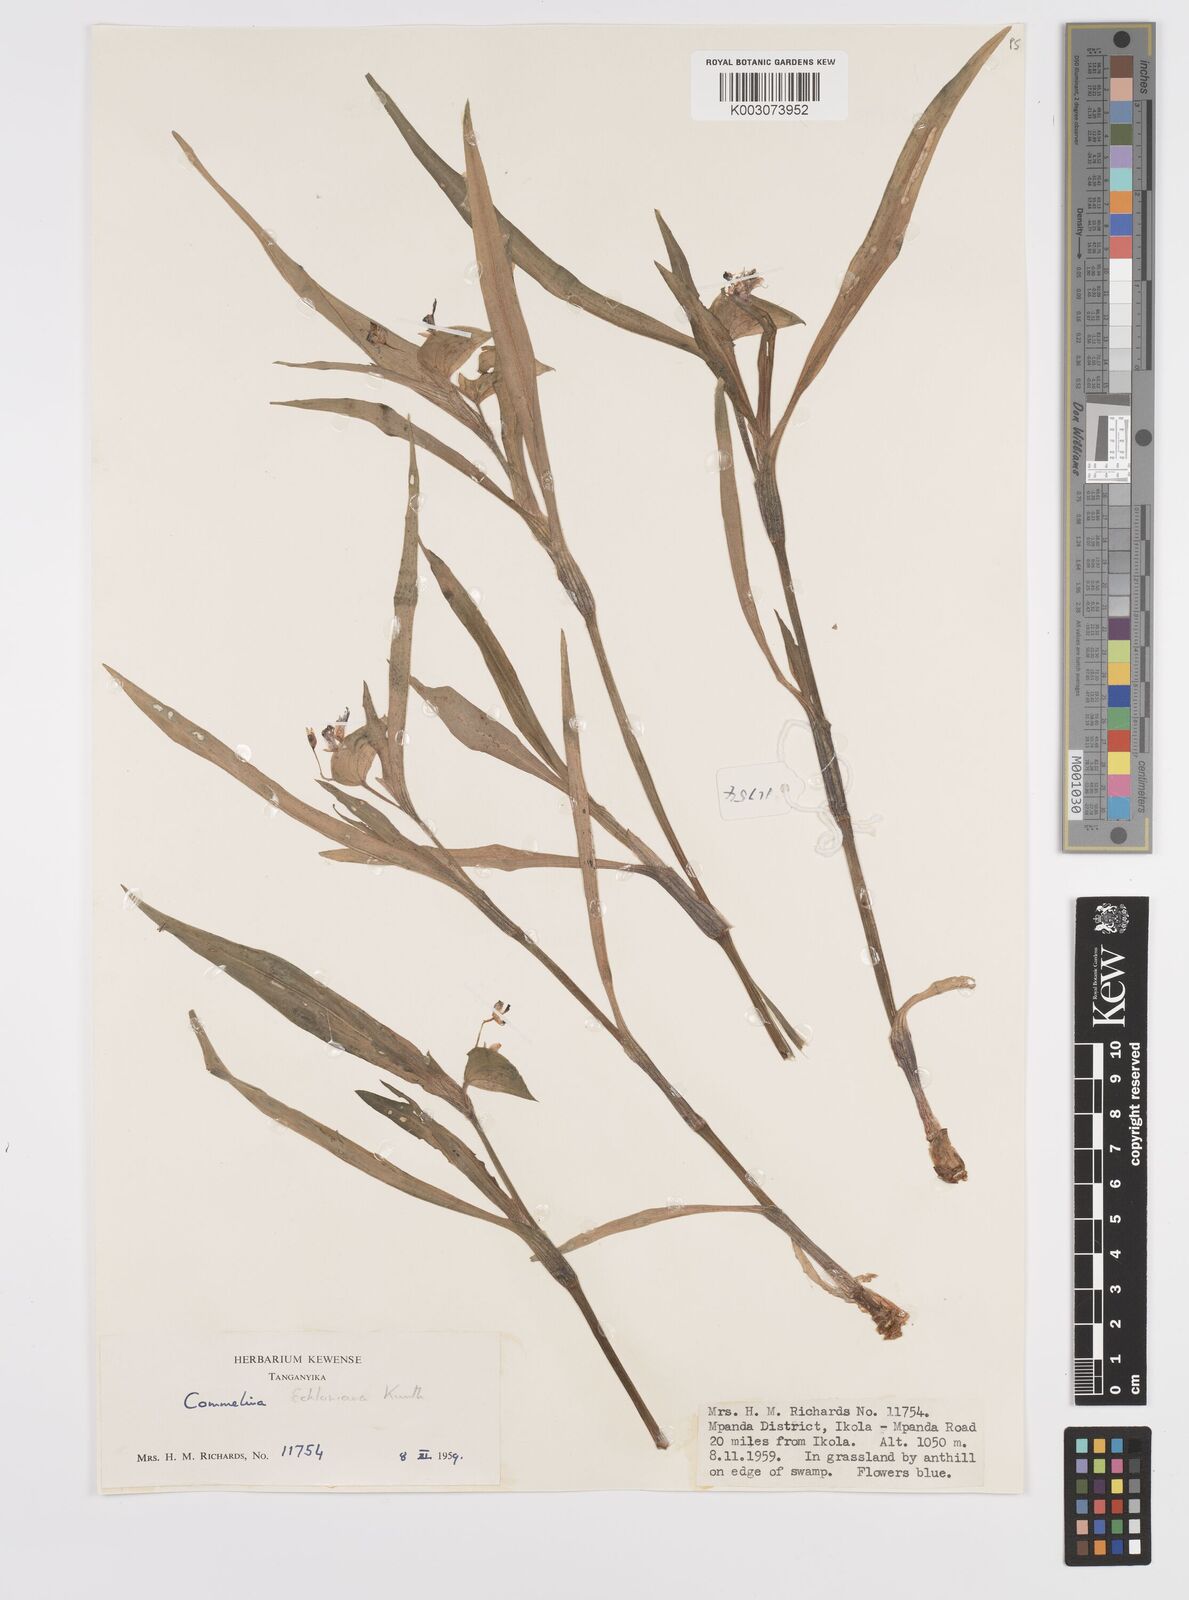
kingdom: Plantae
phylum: Tracheophyta
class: Liliopsida
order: Commelinales
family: Commelinaceae
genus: Commelina
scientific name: Commelina eckloniana
